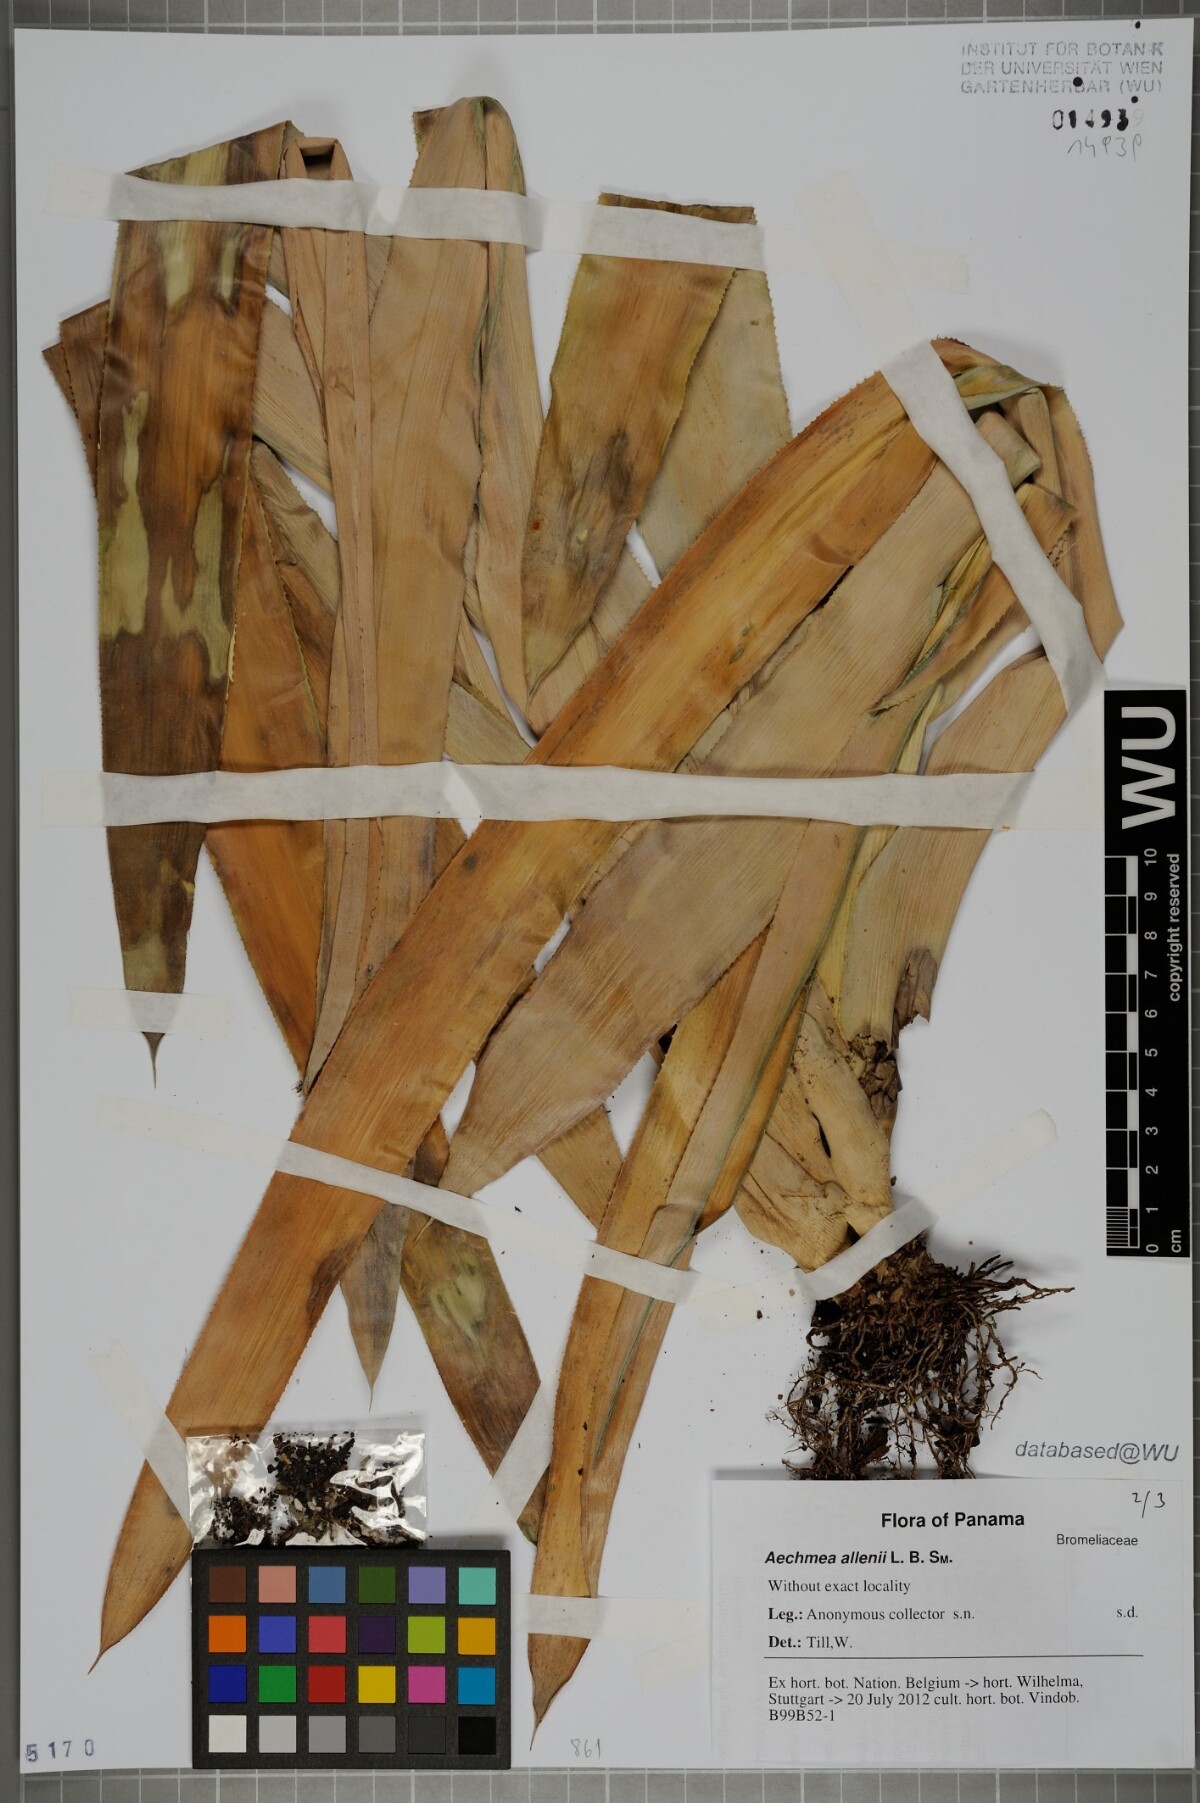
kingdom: Plantae
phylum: Tracheophyta
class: Liliopsida
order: Poales
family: Bromeliaceae
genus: Ronnbergia
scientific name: Ronnbergia allenii
